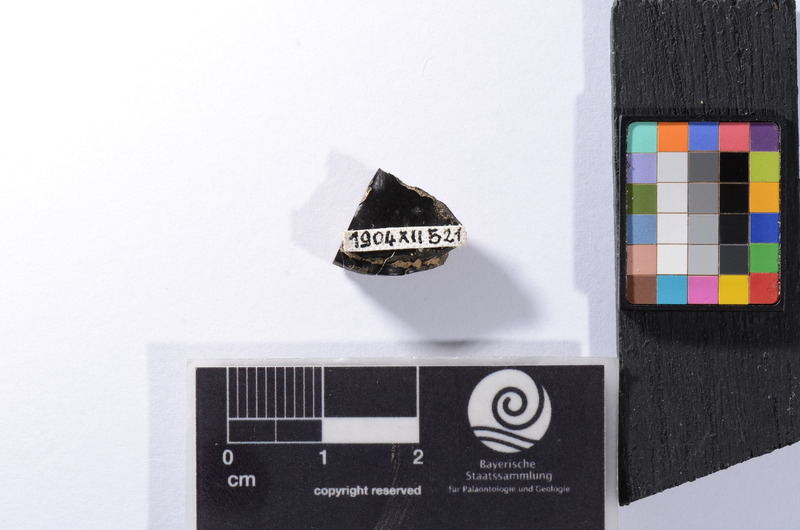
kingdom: Animalia
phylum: Chordata
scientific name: Chordata
